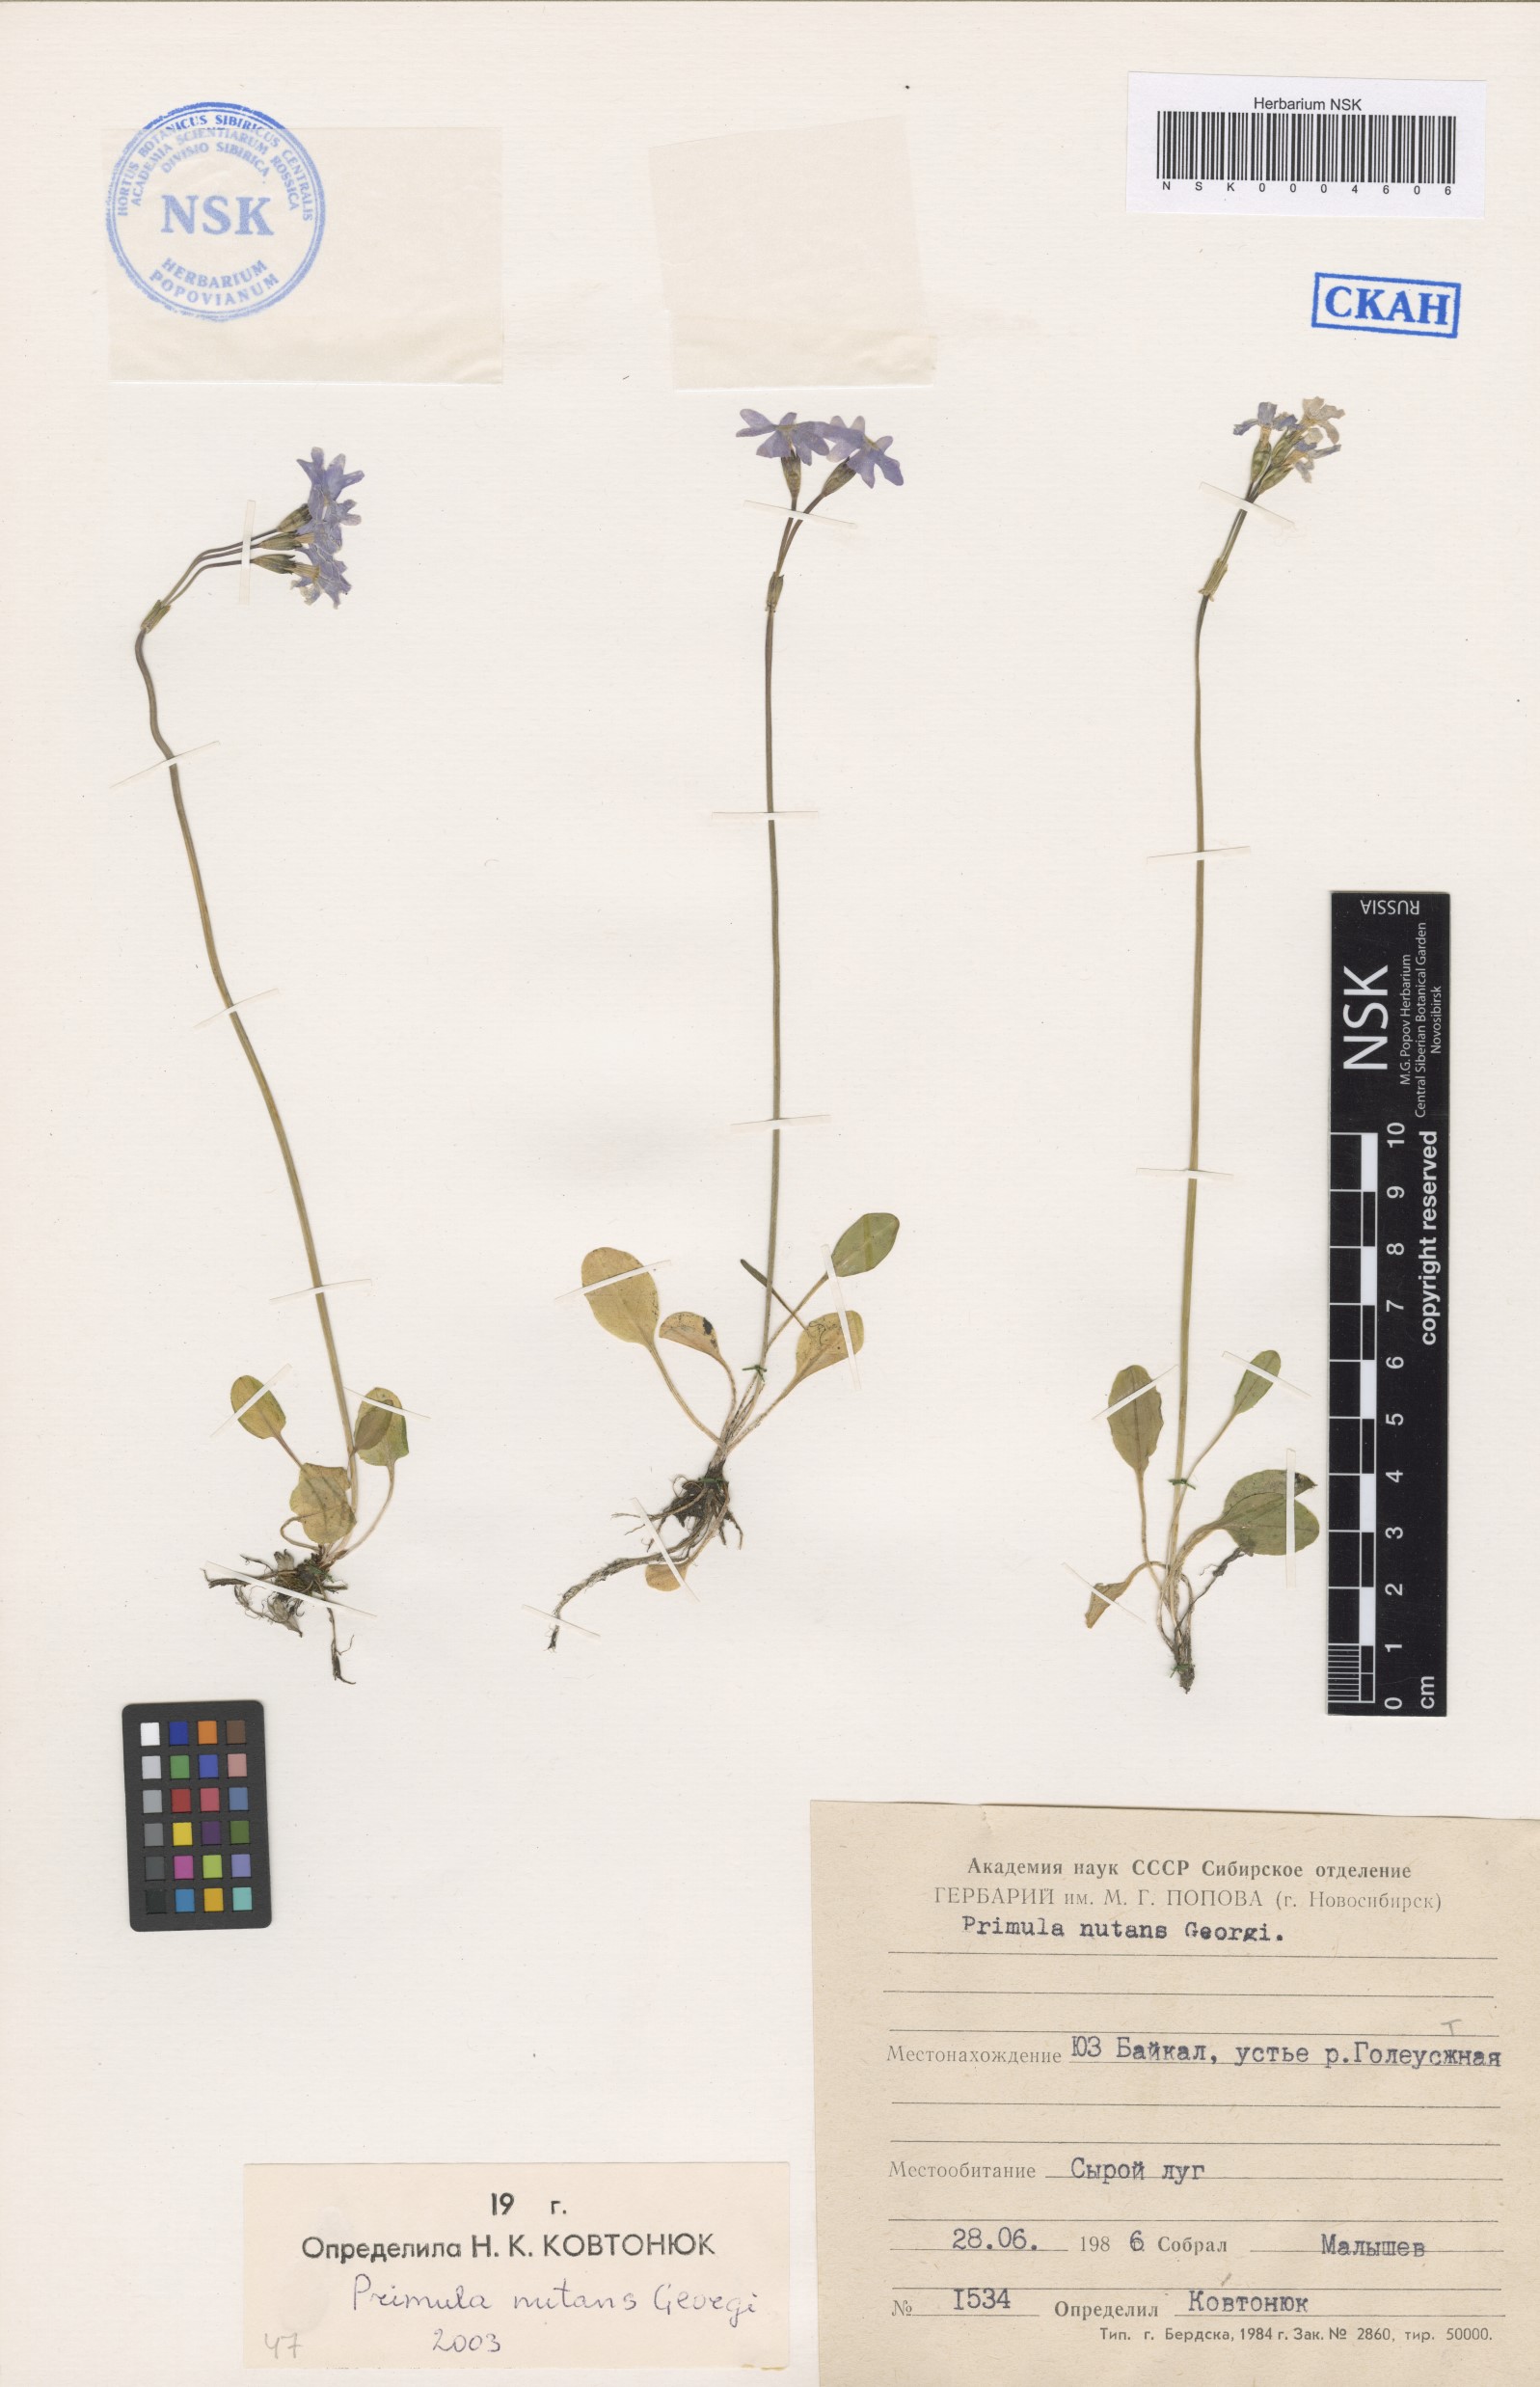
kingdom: Plantae
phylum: Tracheophyta
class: Magnoliopsida
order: Ericales
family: Primulaceae
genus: Primula
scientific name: Primula nutans
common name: Siberian primrose
